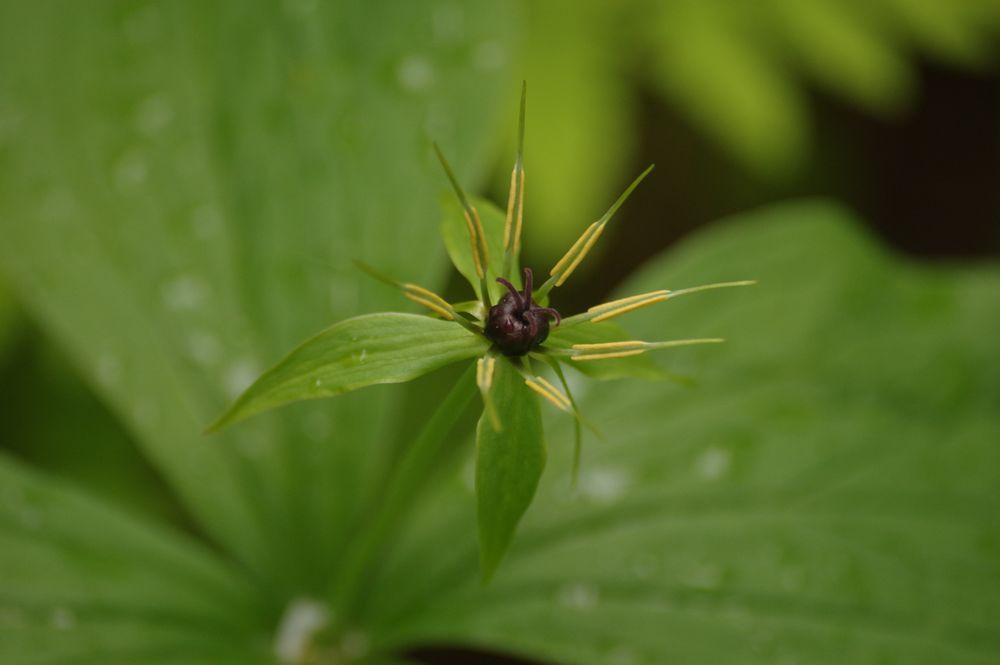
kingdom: Plantae
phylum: Tracheophyta
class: Liliopsida
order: Liliales
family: Melanthiaceae
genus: Paris
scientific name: Paris quadrifolia
